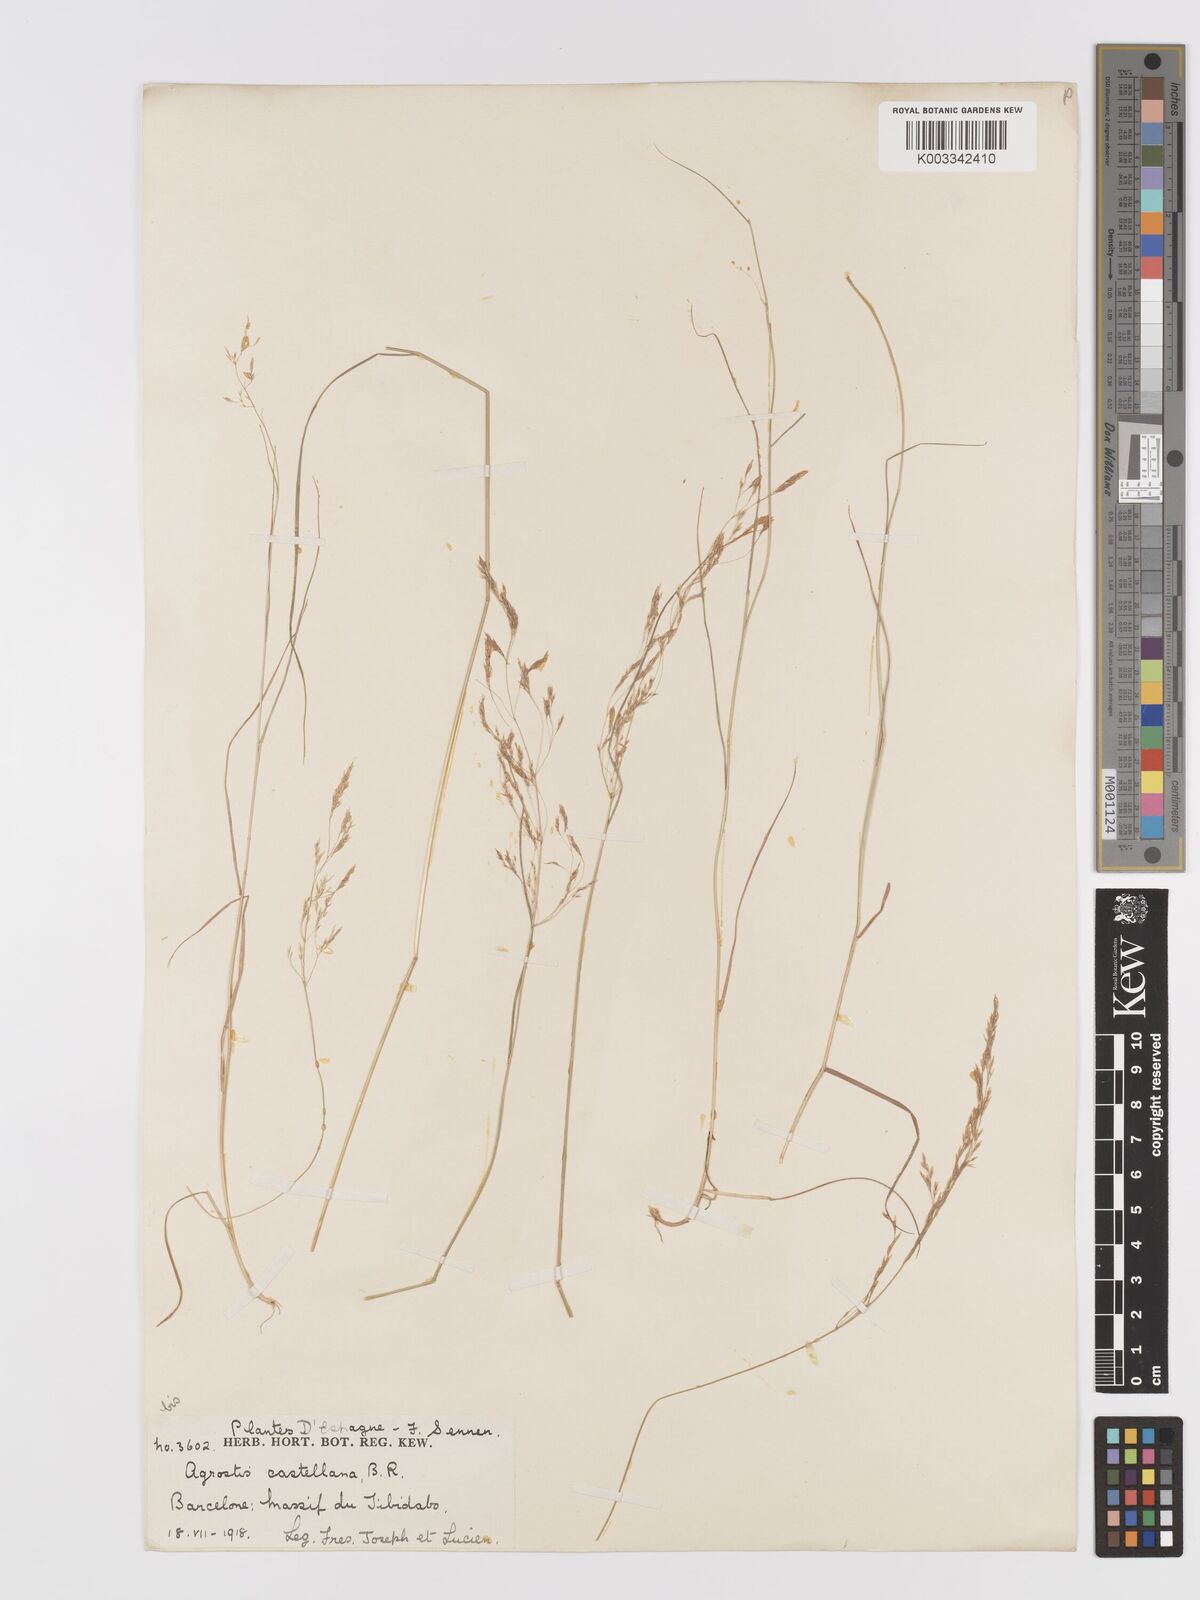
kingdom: Plantae
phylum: Tracheophyta
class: Liliopsida
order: Poales
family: Poaceae
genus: Agrostis
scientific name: Agrostis castellana
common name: Highland bent
